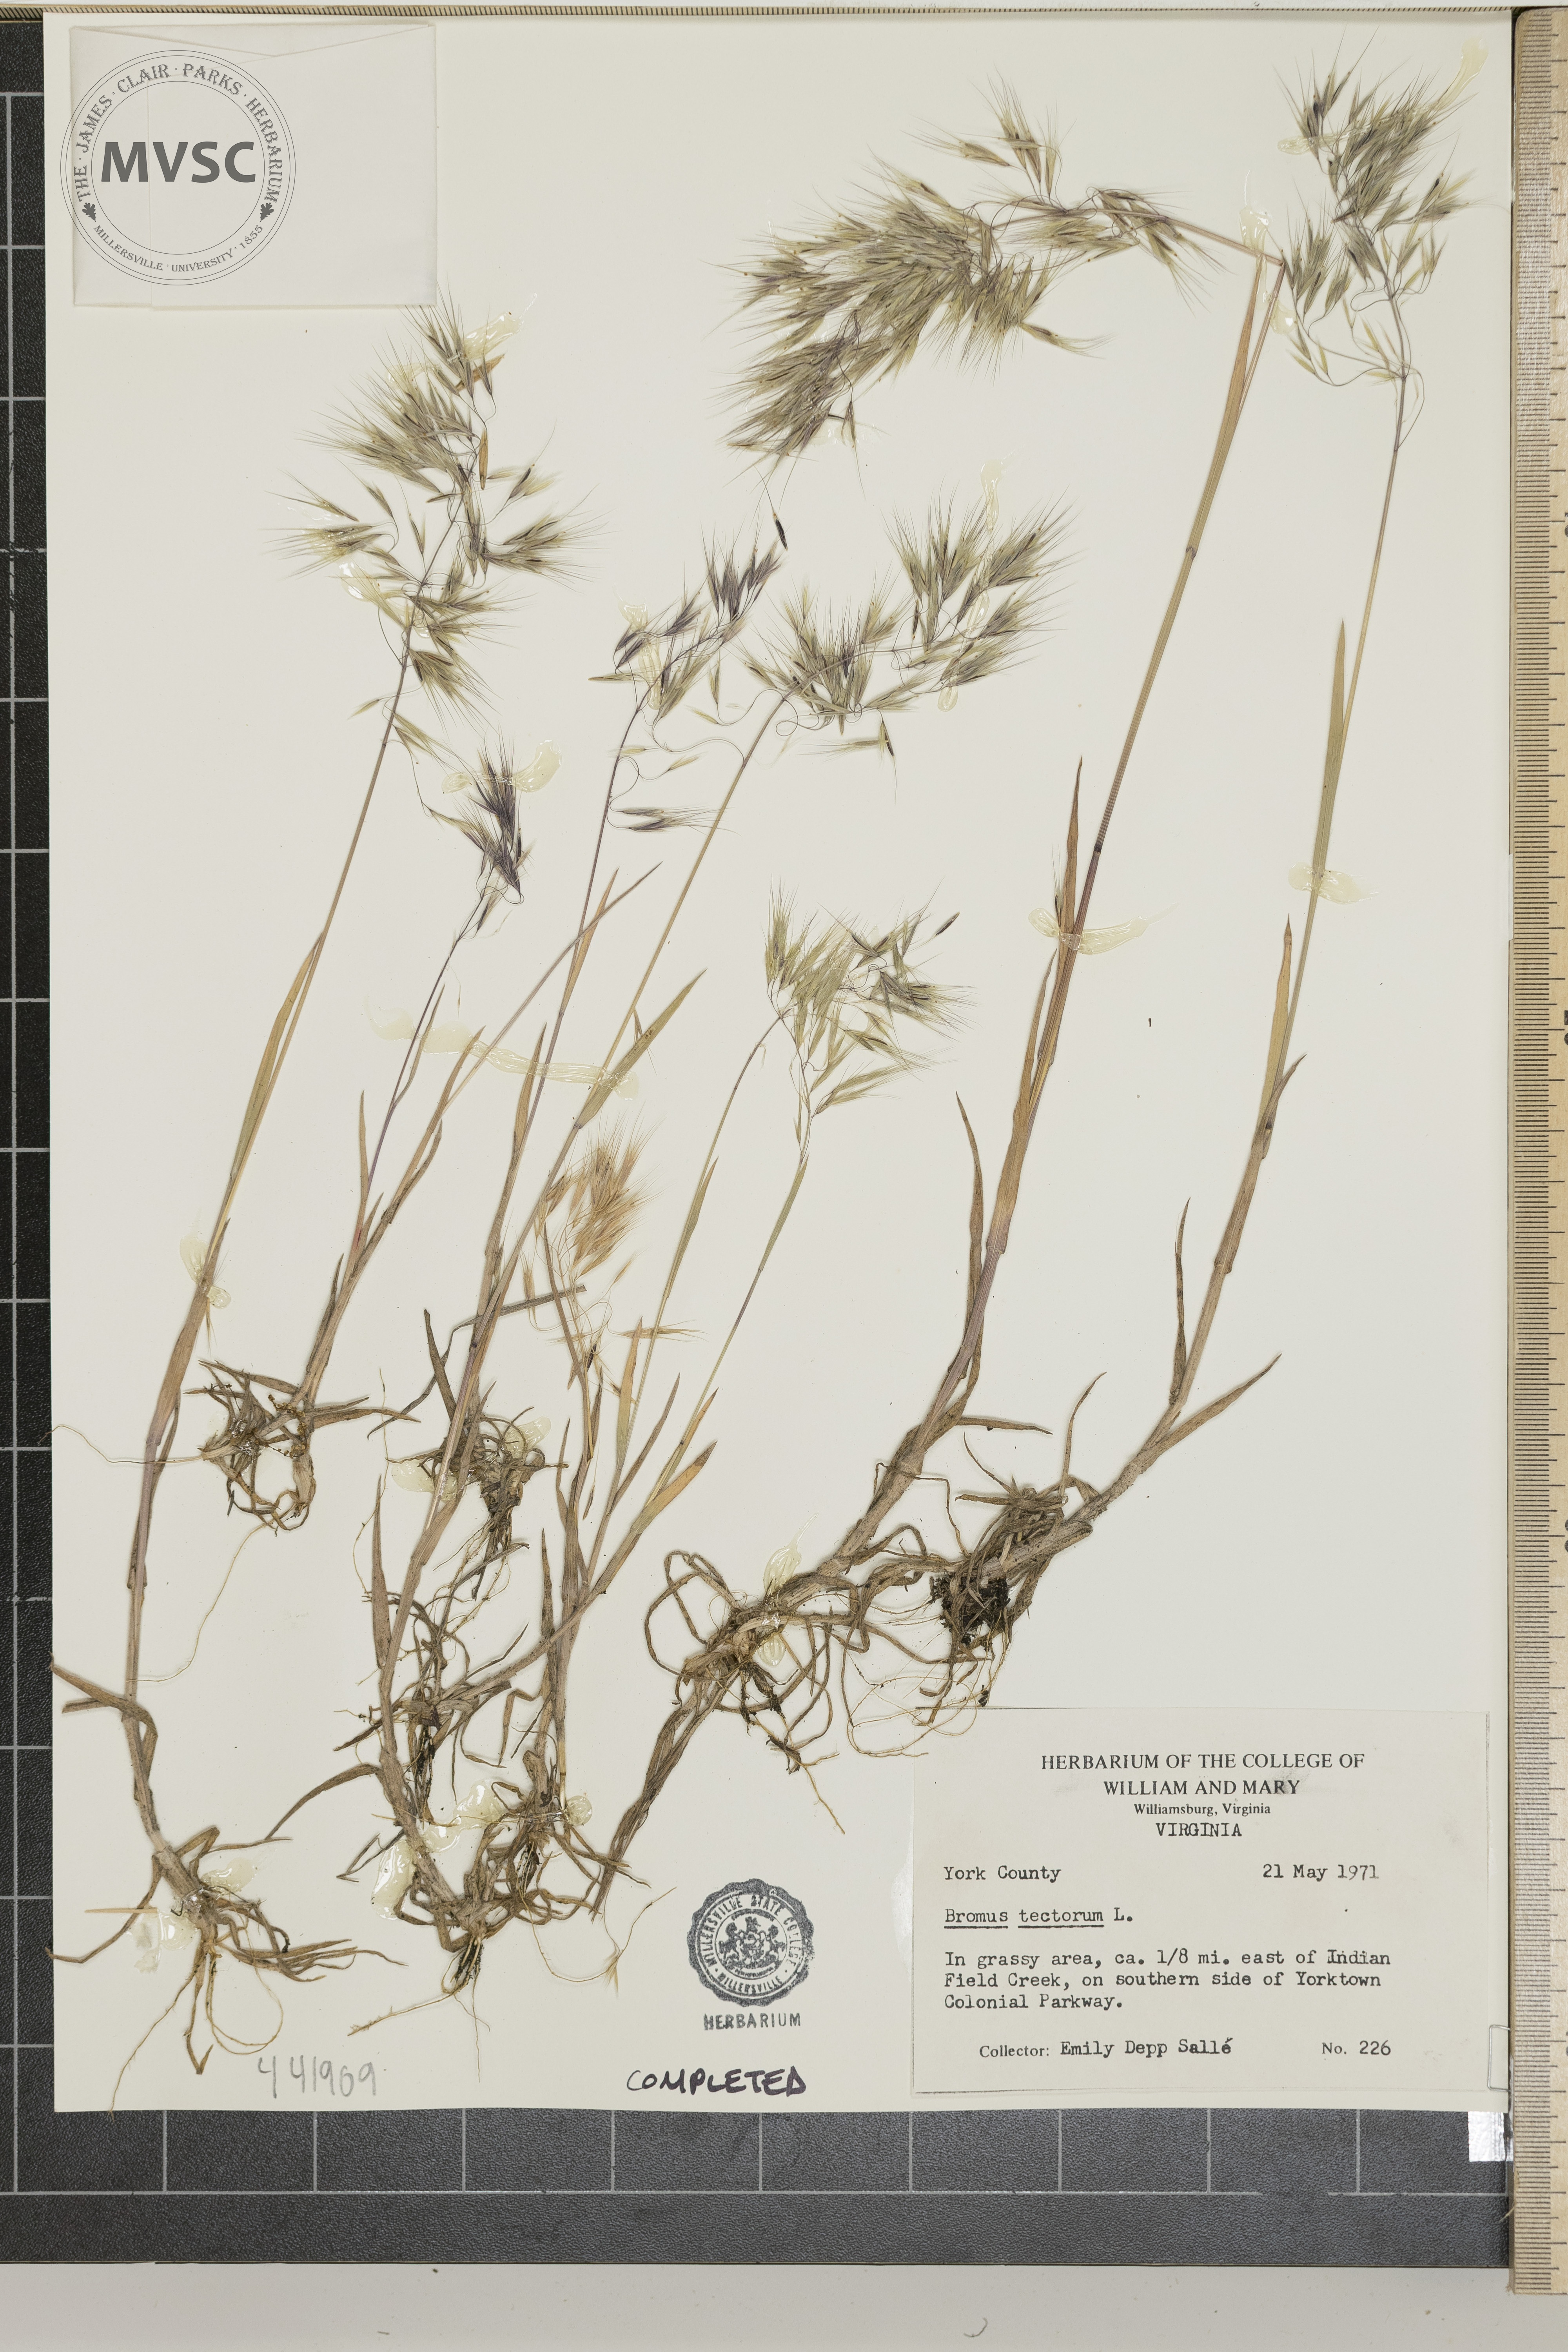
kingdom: Plantae
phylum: Tracheophyta
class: Liliopsida
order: Poales
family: Poaceae
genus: Bromus
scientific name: Bromus tectorum
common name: Cheatgrass
